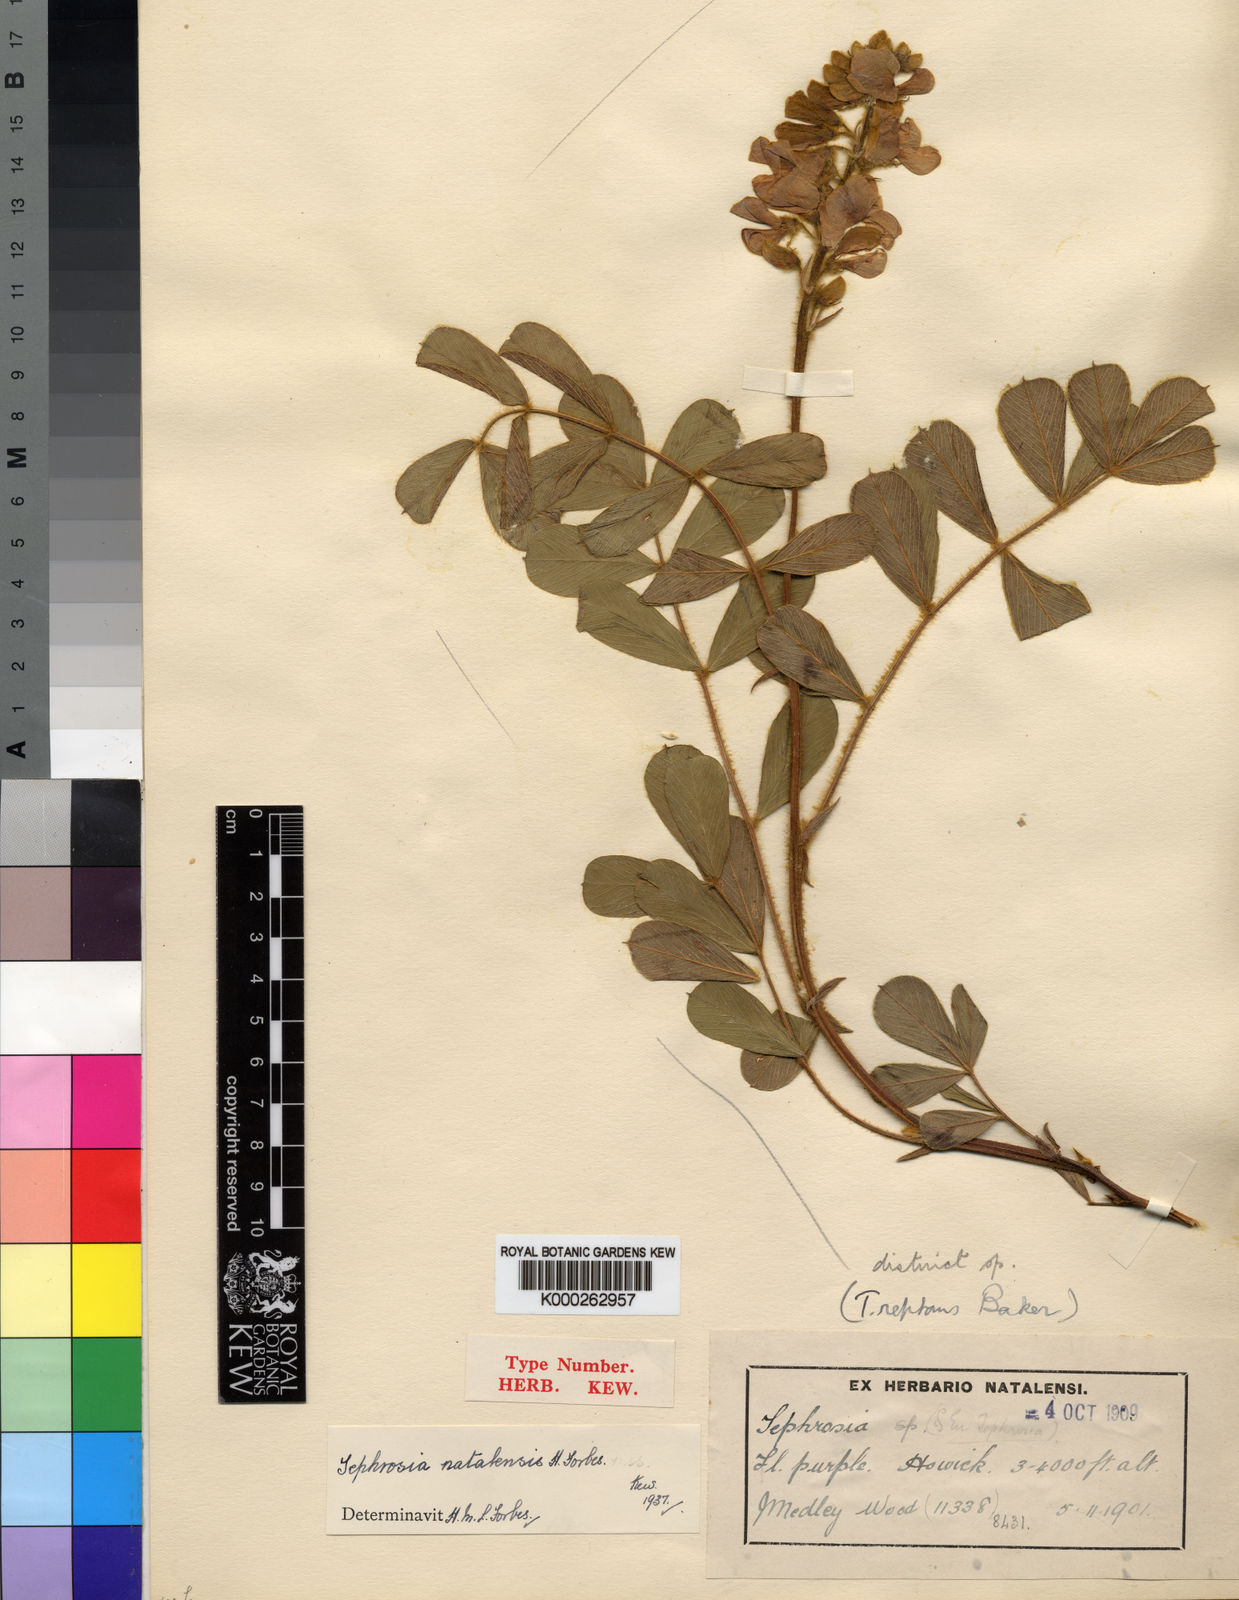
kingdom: Plantae
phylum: Tracheophyta
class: Magnoliopsida
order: Fabales
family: Fabaceae
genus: Tephrosia
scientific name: Tephrosia natalensis
